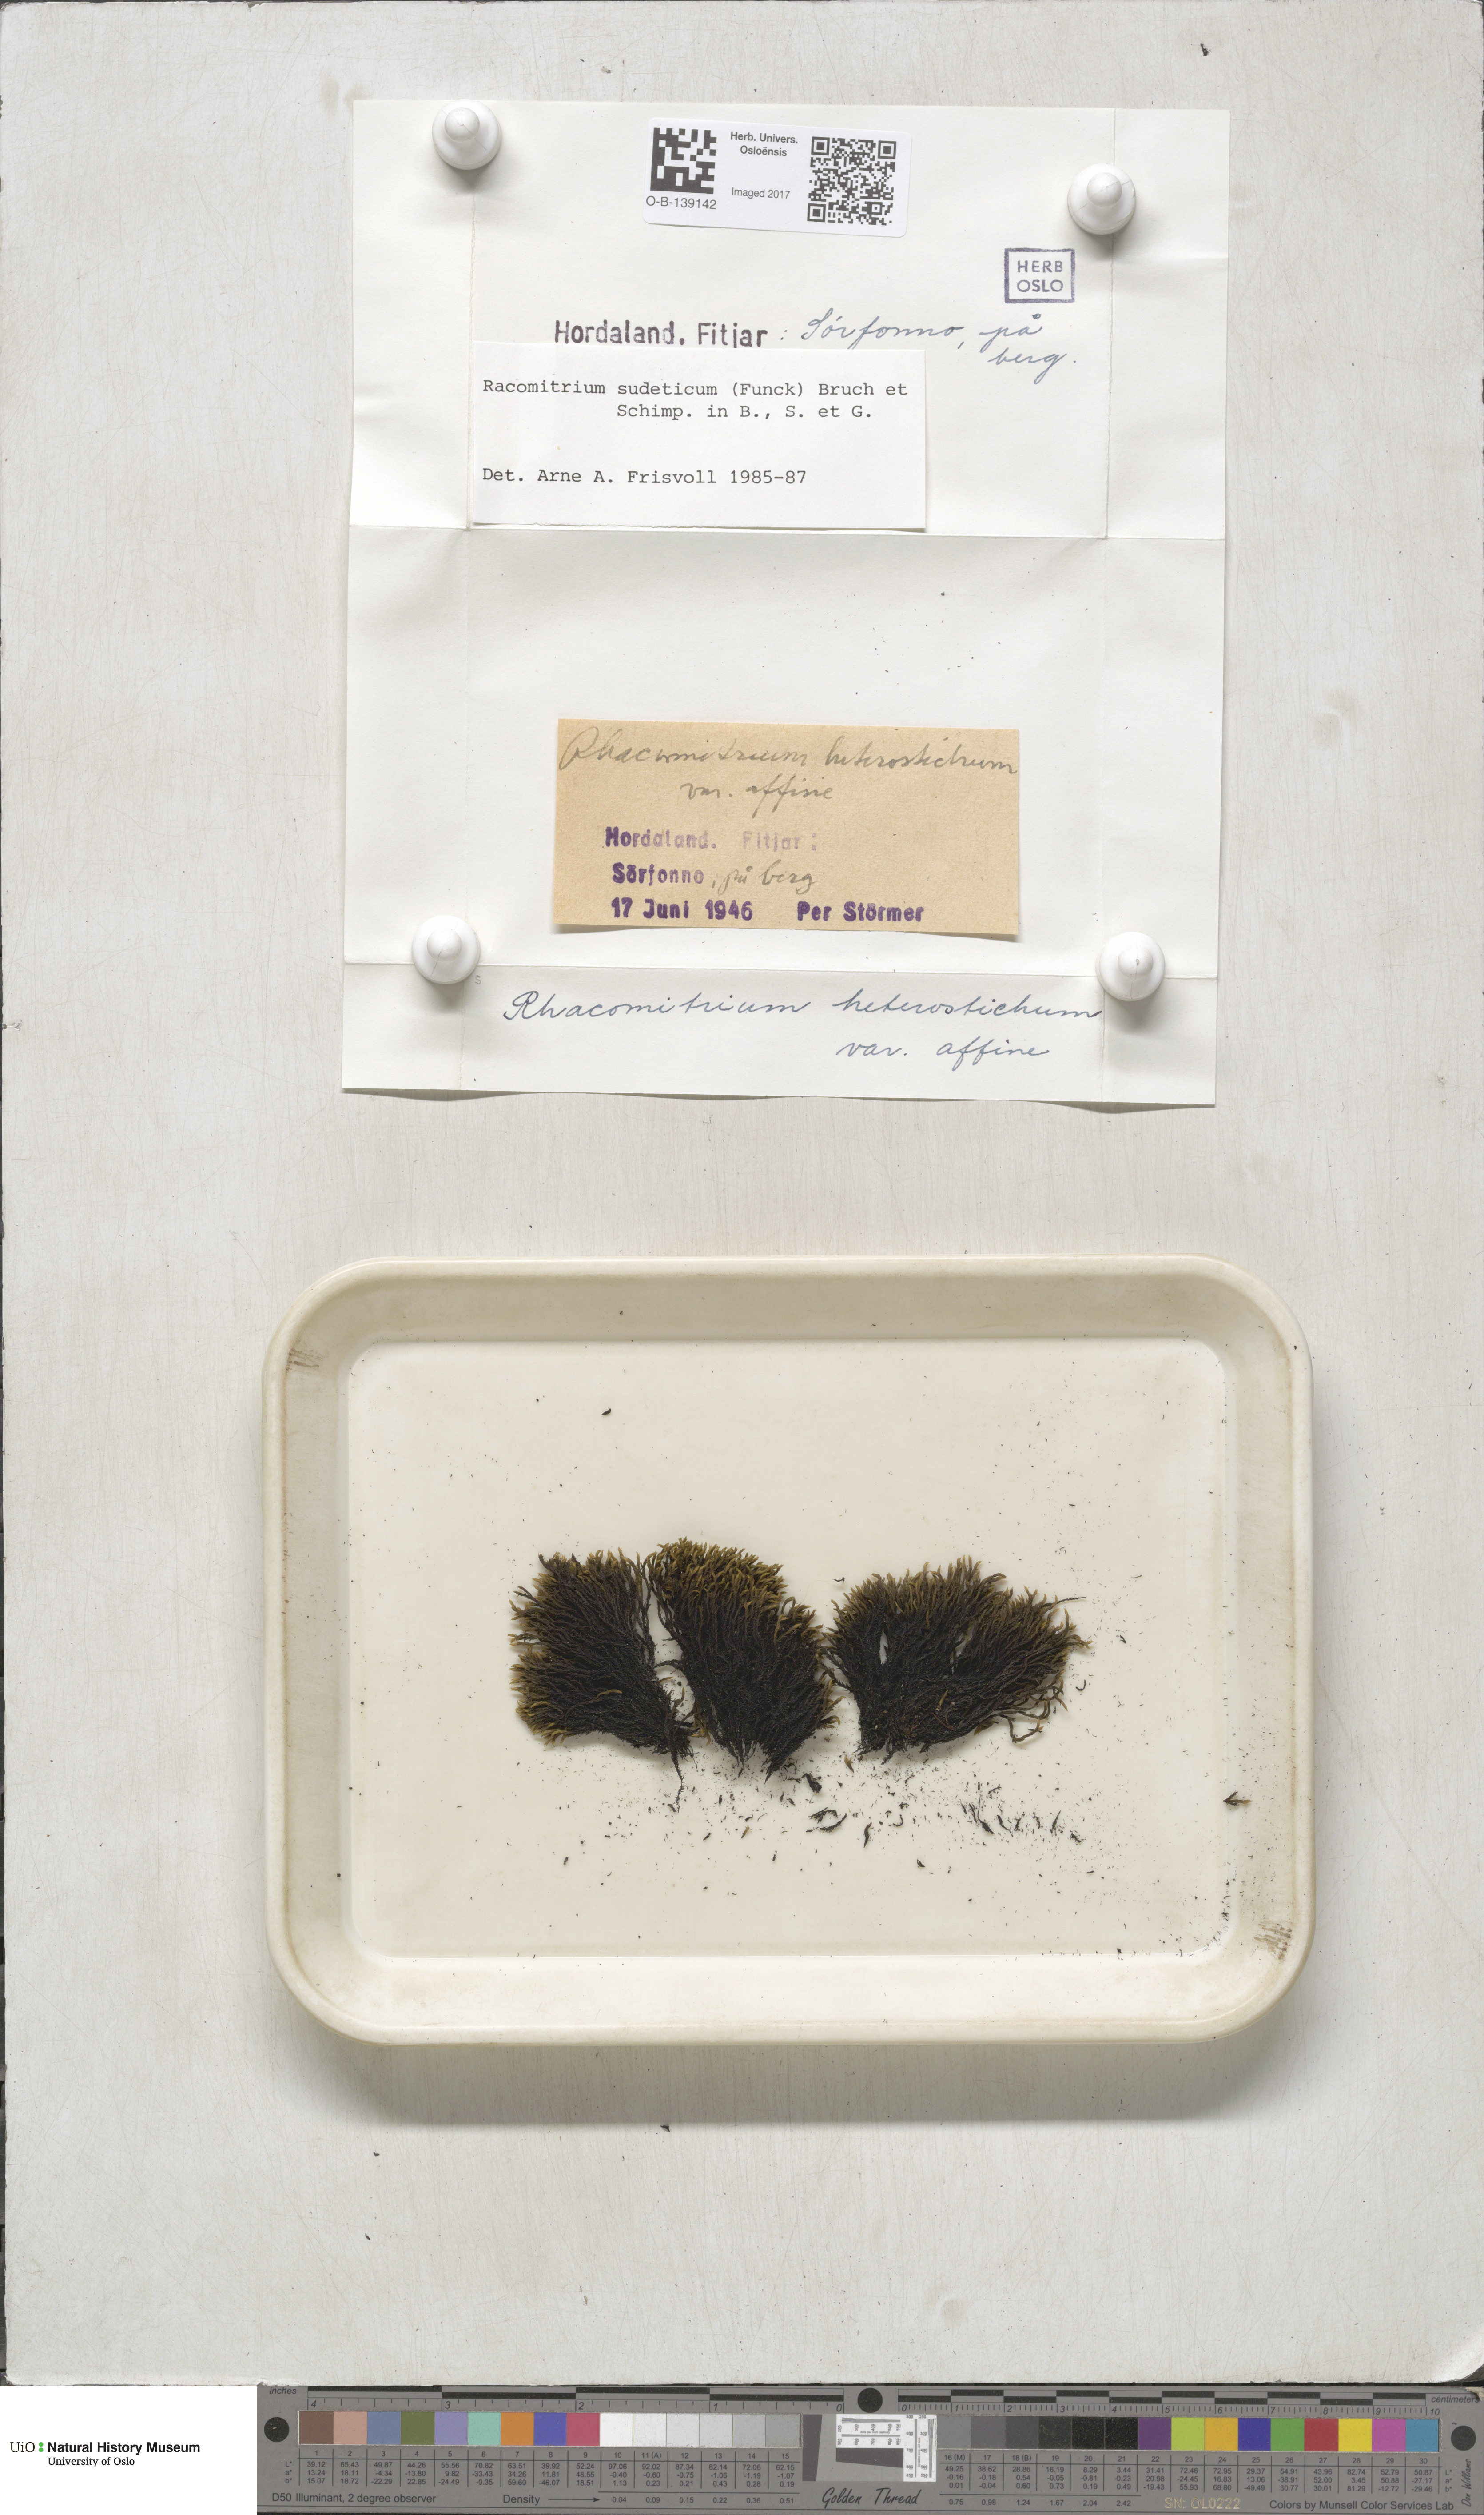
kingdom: Plantae
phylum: Bryophyta
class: Bryopsida
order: Grimmiales
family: Grimmiaceae
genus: Bucklandiella
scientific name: Bucklandiella sudetica
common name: Slender fringe-moss
